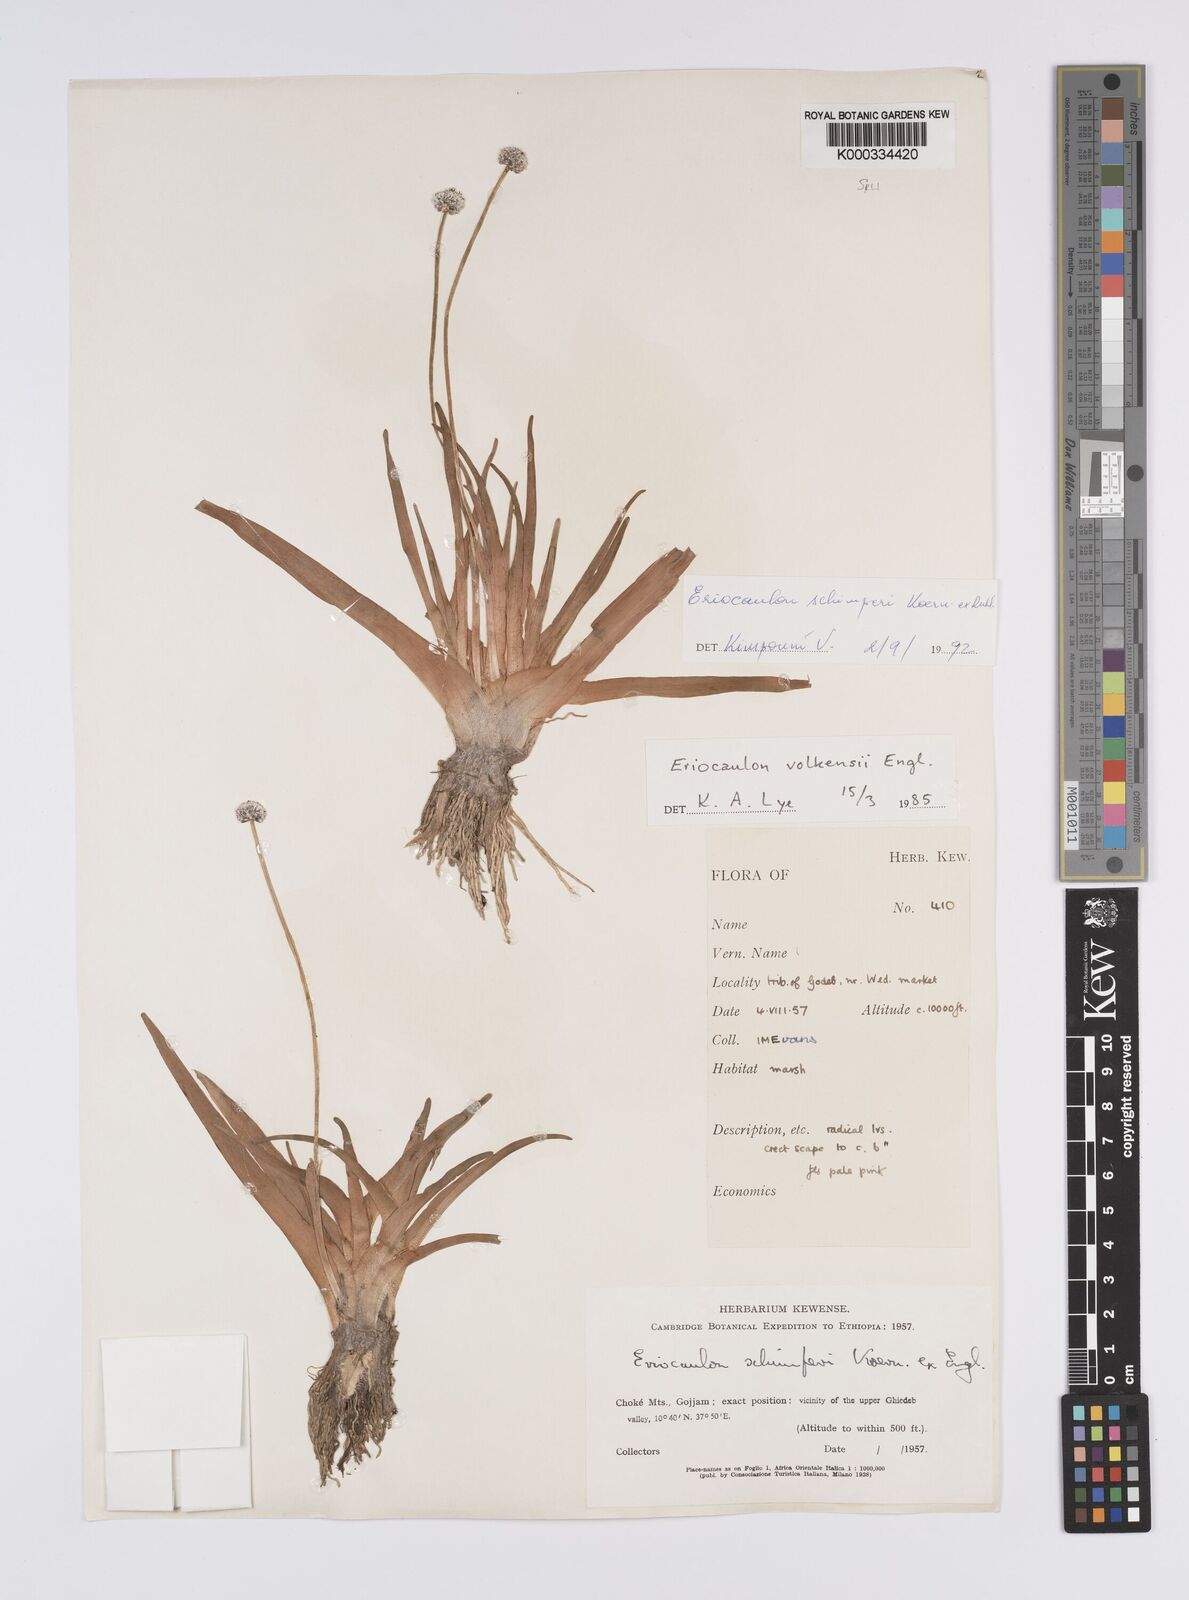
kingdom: Plantae
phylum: Tracheophyta
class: Liliopsida
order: Poales
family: Eriocaulaceae
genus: Eriocaulon
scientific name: Eriocaulon
